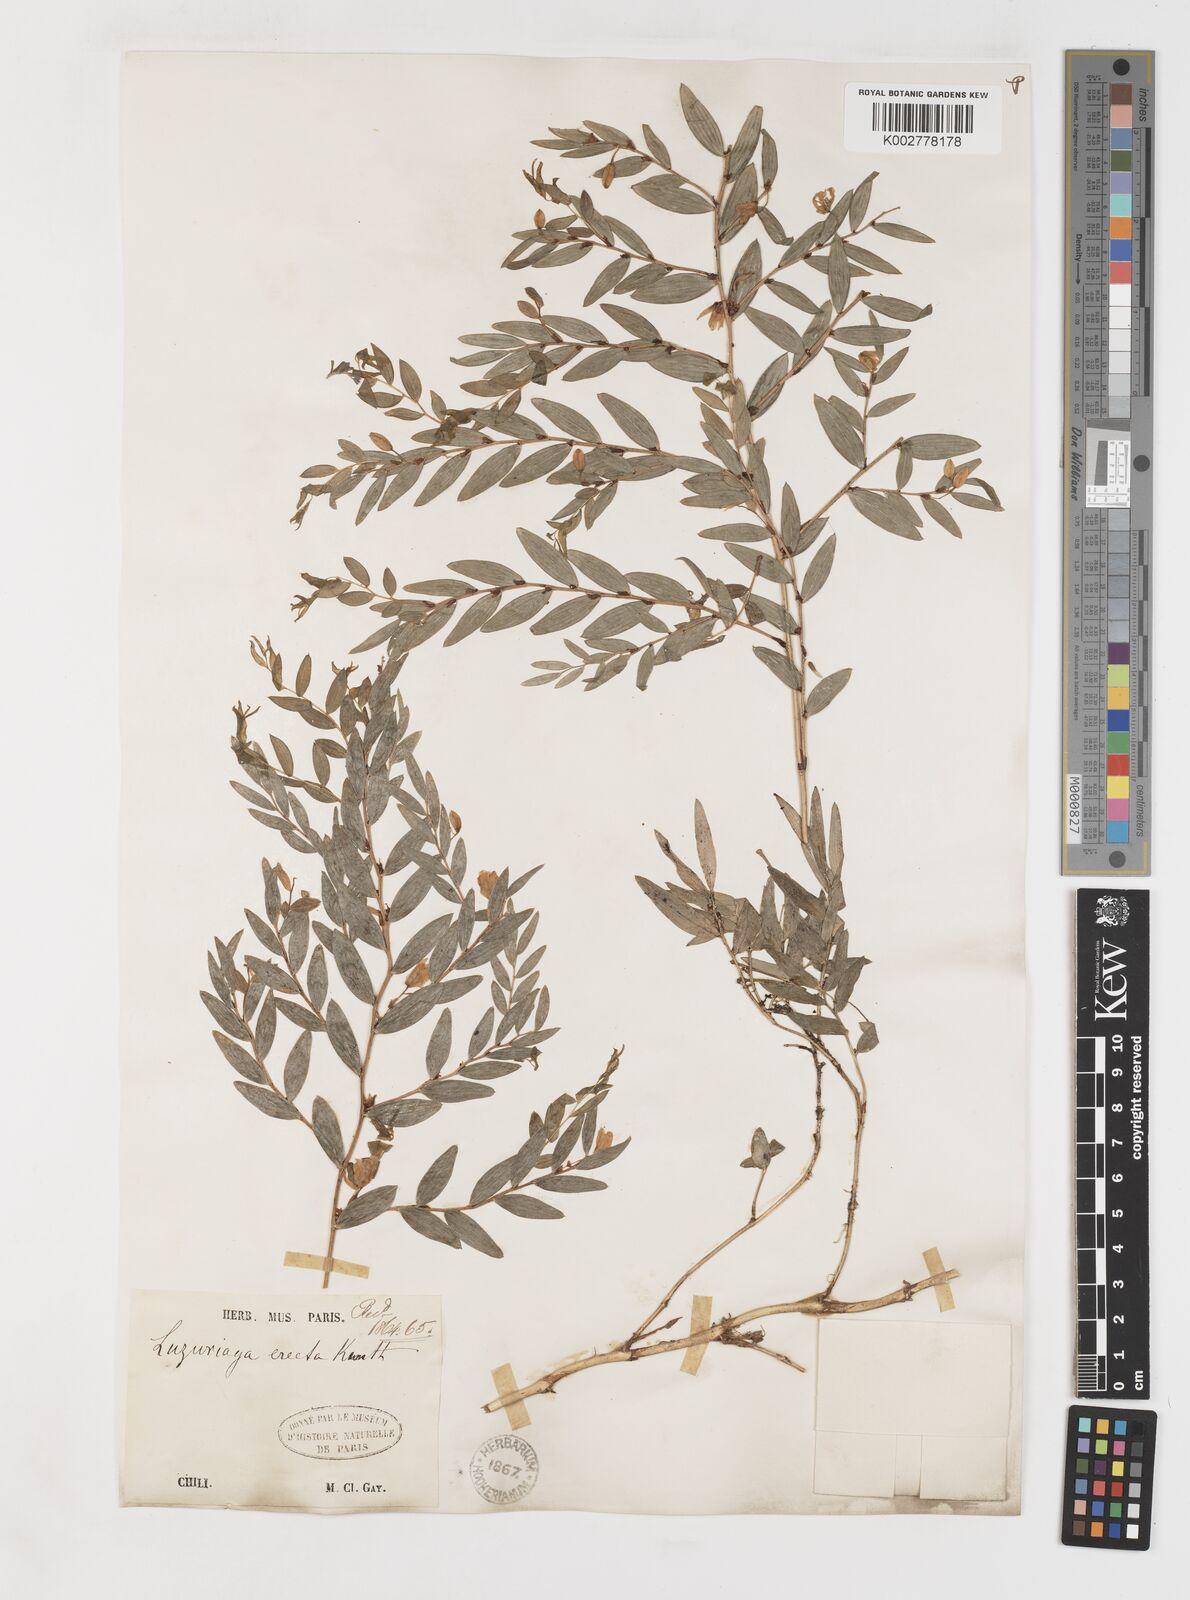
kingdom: Plantae
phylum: Tracheophyta
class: Liliopsida
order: Liliales
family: Alstroemeriaceae
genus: Luzuriaga
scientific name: Luzuriaga polyphylla
